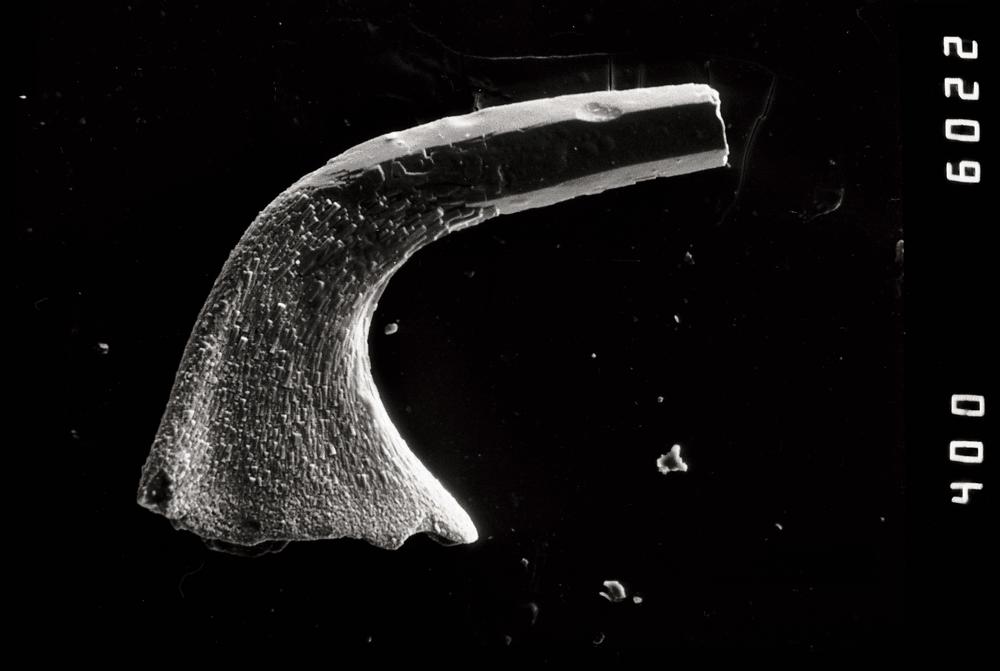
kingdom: Animalia
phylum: Chordata
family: Protopanderodontidae
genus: Variabiloconus
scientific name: Variabiloconus
